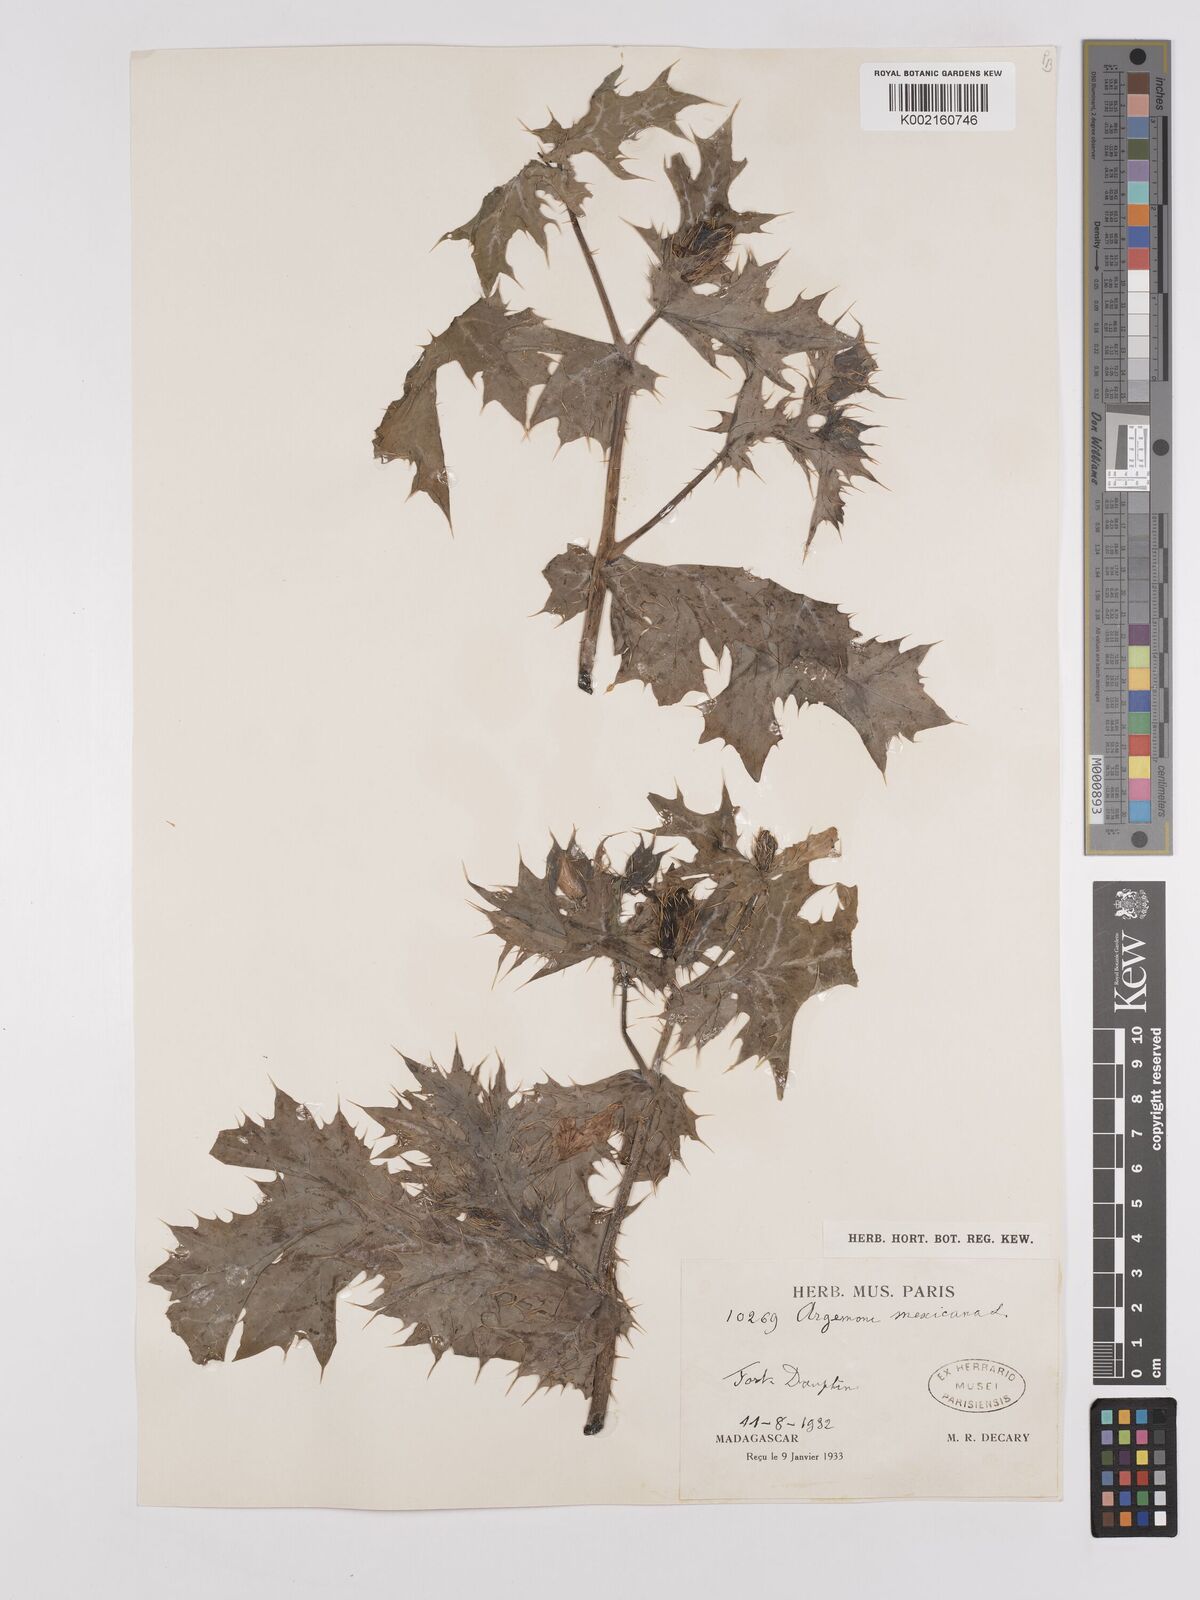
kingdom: Plantae
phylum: Tracheophyta
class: Magnoliopsida
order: Ranunculales
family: Papaveraceae
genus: Argemone
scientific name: Argemone mexicana
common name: Mexican poppy
